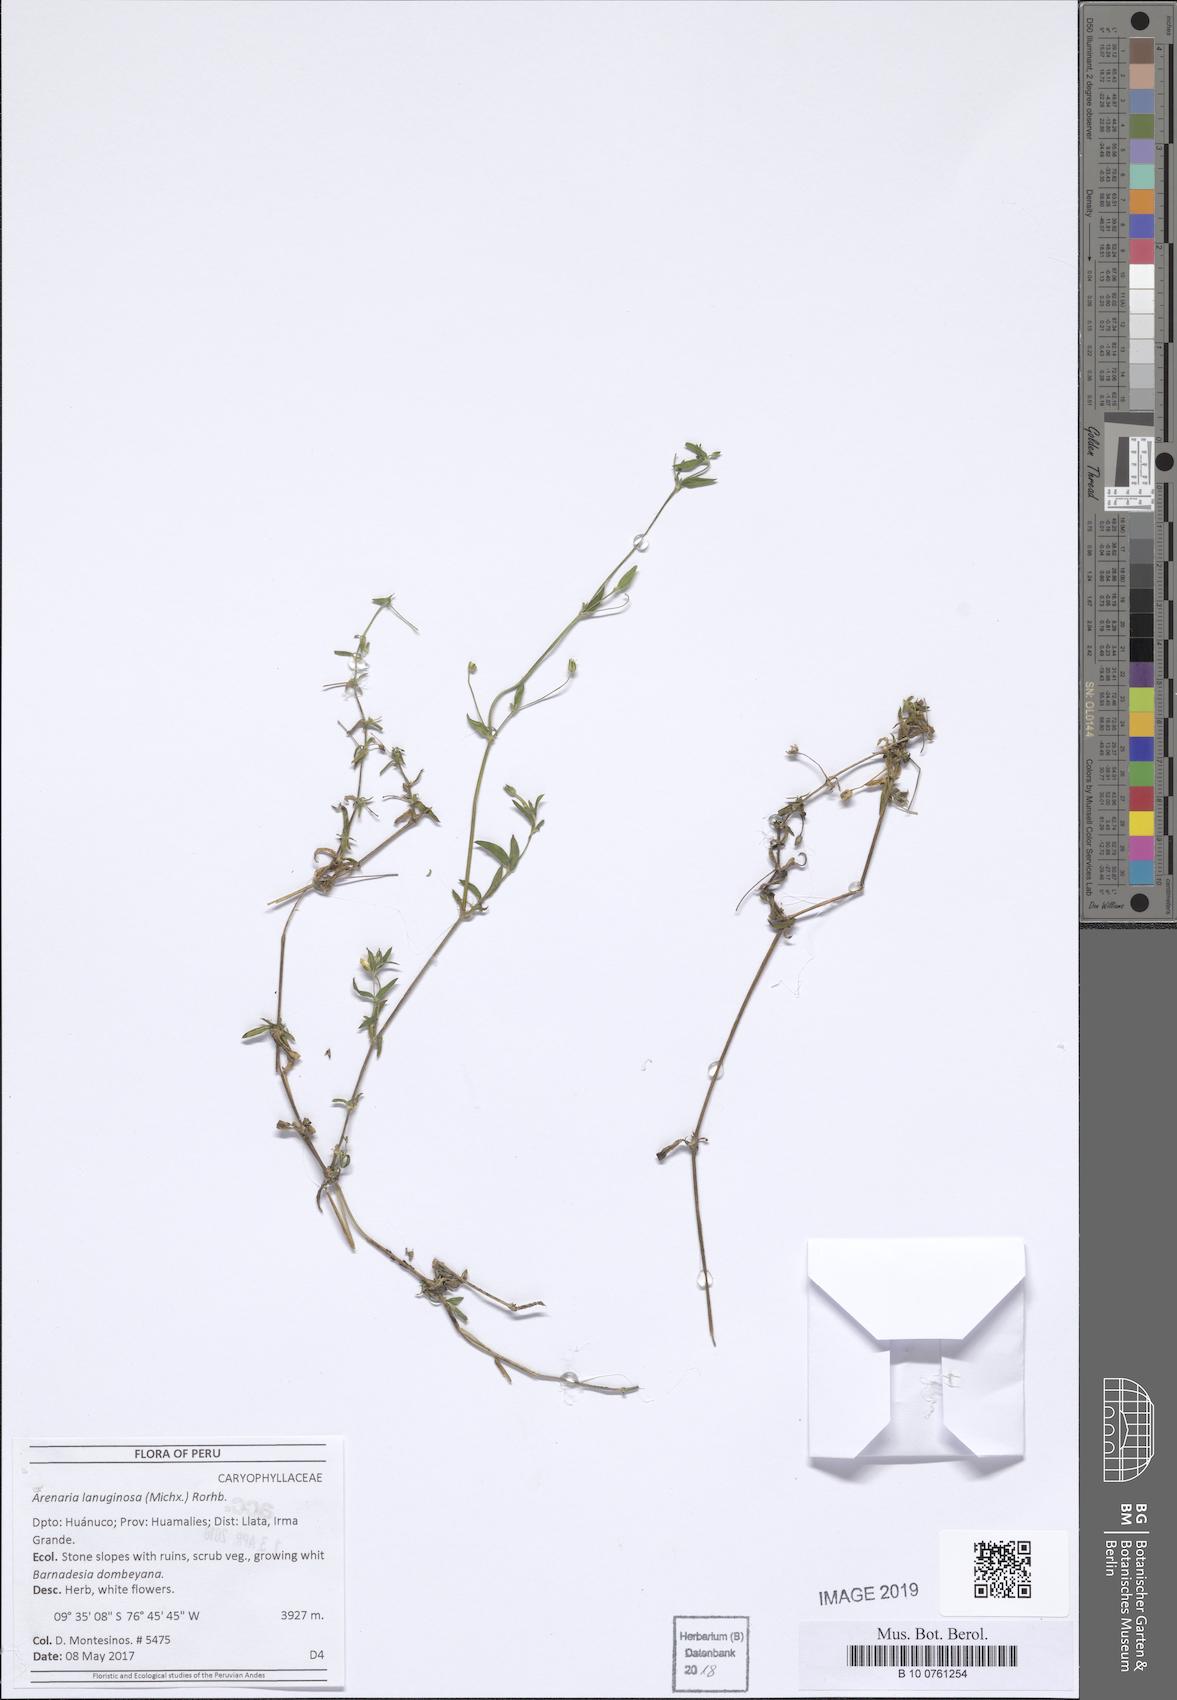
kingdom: Plantae
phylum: Tracheophyta
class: Magnoliopsida
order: Caryophyllales
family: Caryophyllaceae
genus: Arenaria
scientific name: Arenaria lanuginosa
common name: Spread sandwort
